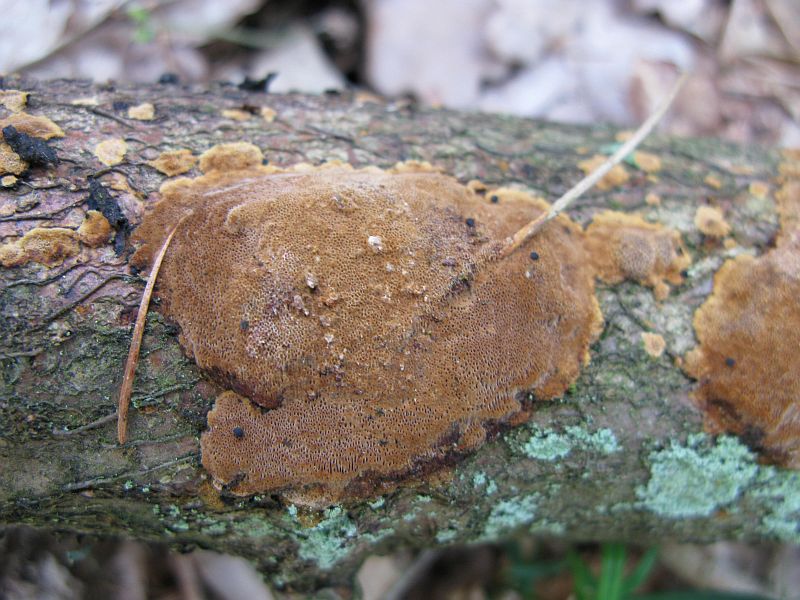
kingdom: Fungi
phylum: Basidiomycota
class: Agaricomycetes
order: Hymenochaetales
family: Hymenochaetaceae
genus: Fuscoporia
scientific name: Fuscoporia ferrea
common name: skorpe-ildporesvamp
